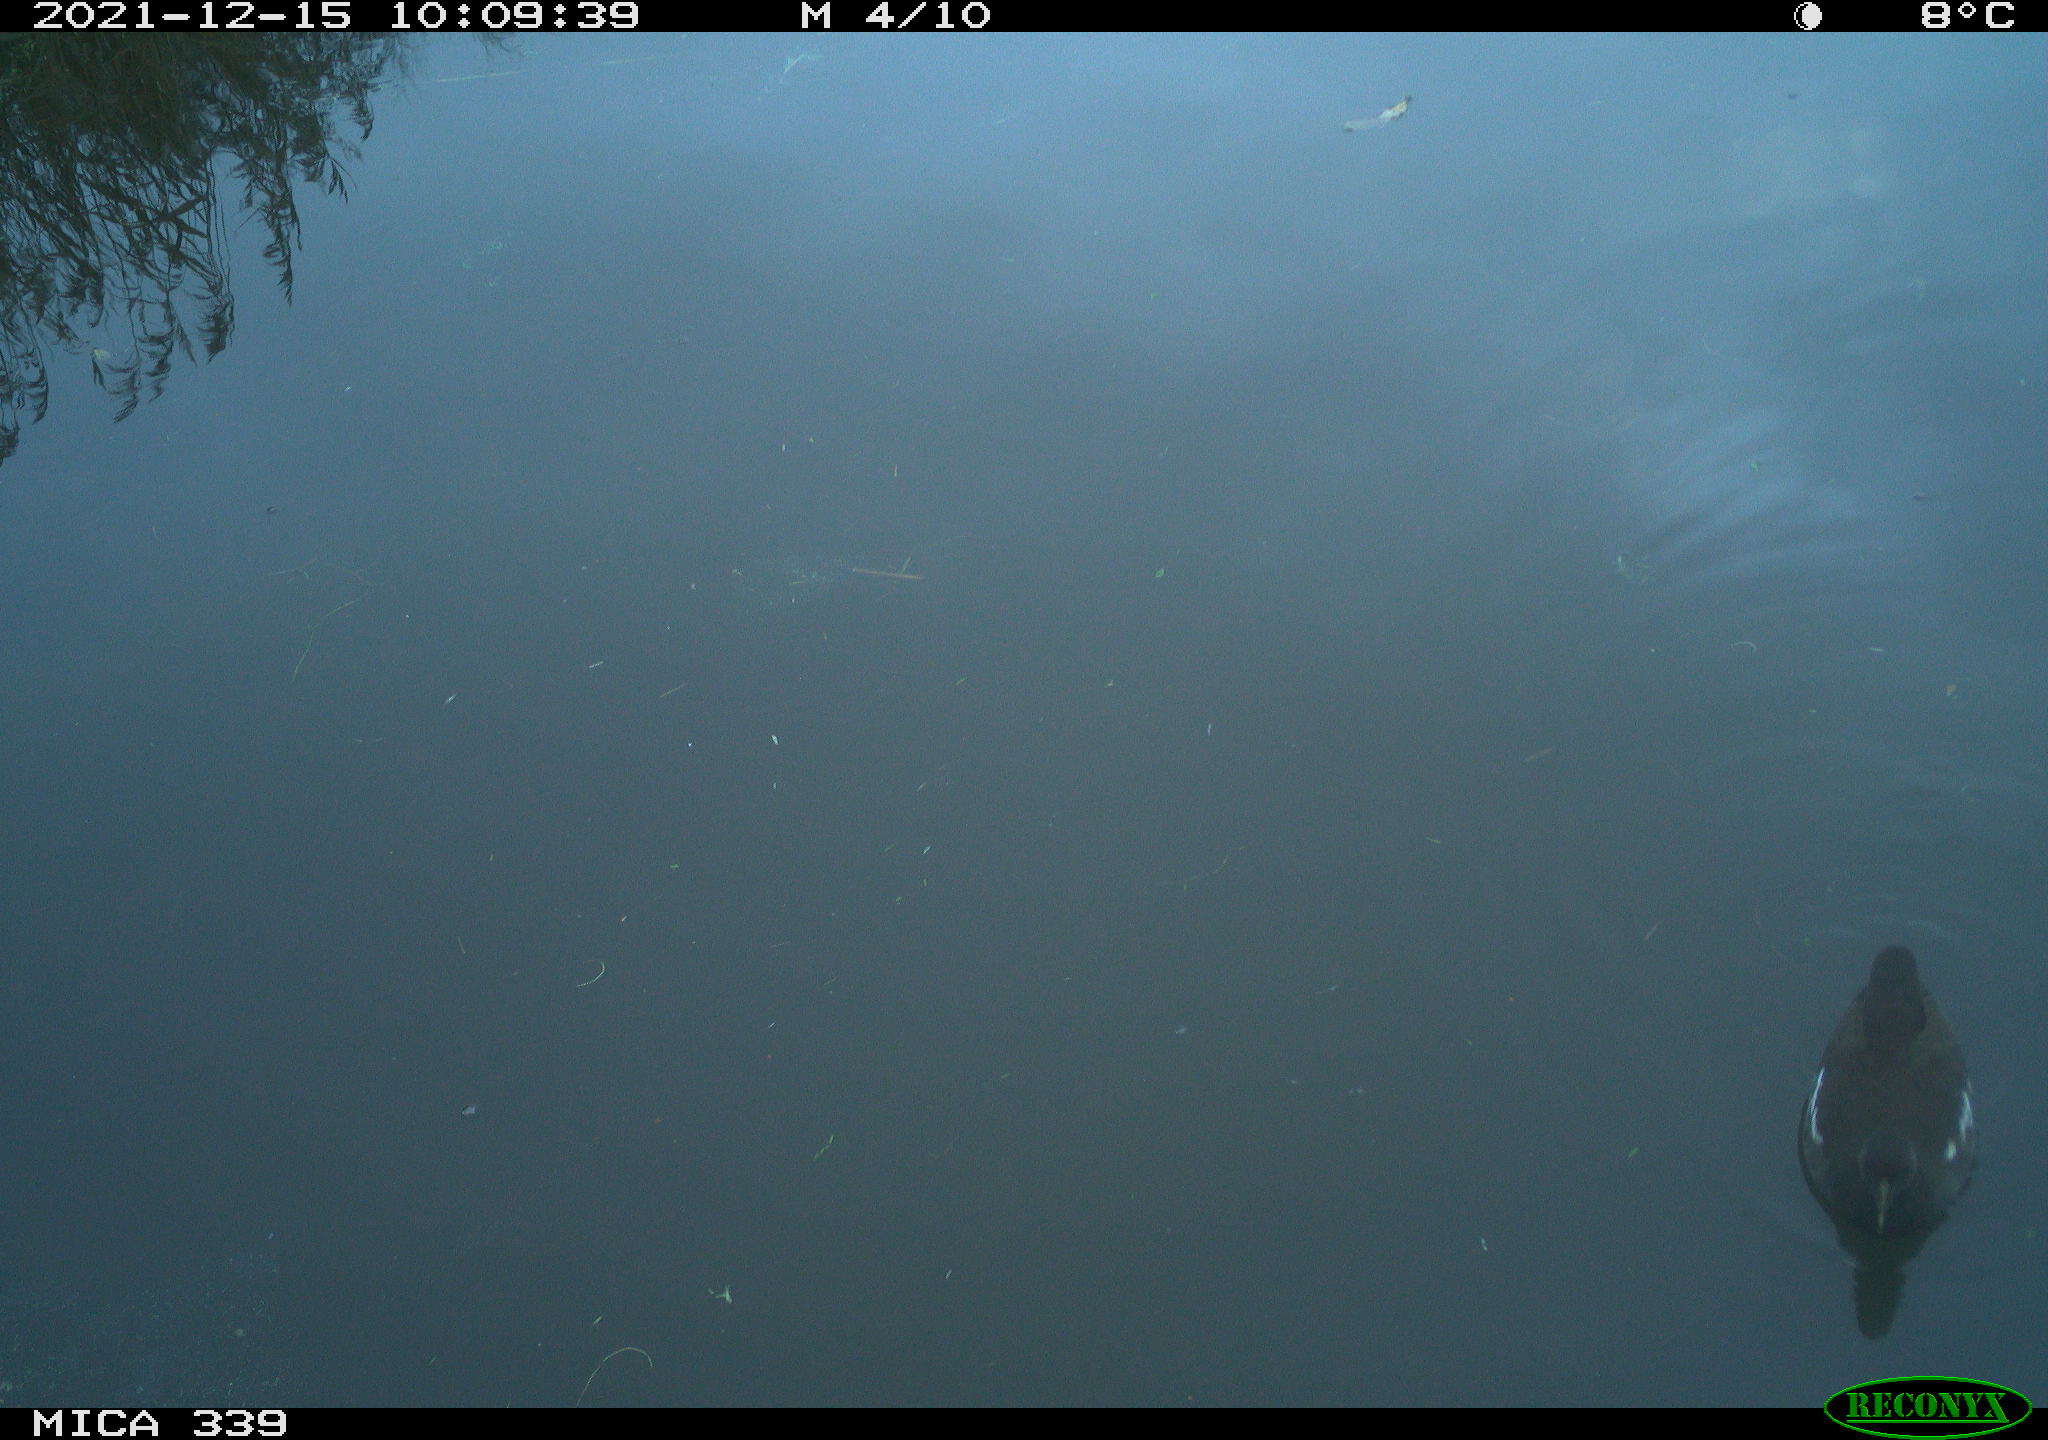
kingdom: Animalia
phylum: Chordata
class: Aves
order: Gruiformes
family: Rallidae
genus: Gallinula
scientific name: Gallinula chloropus
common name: Common moorhen
